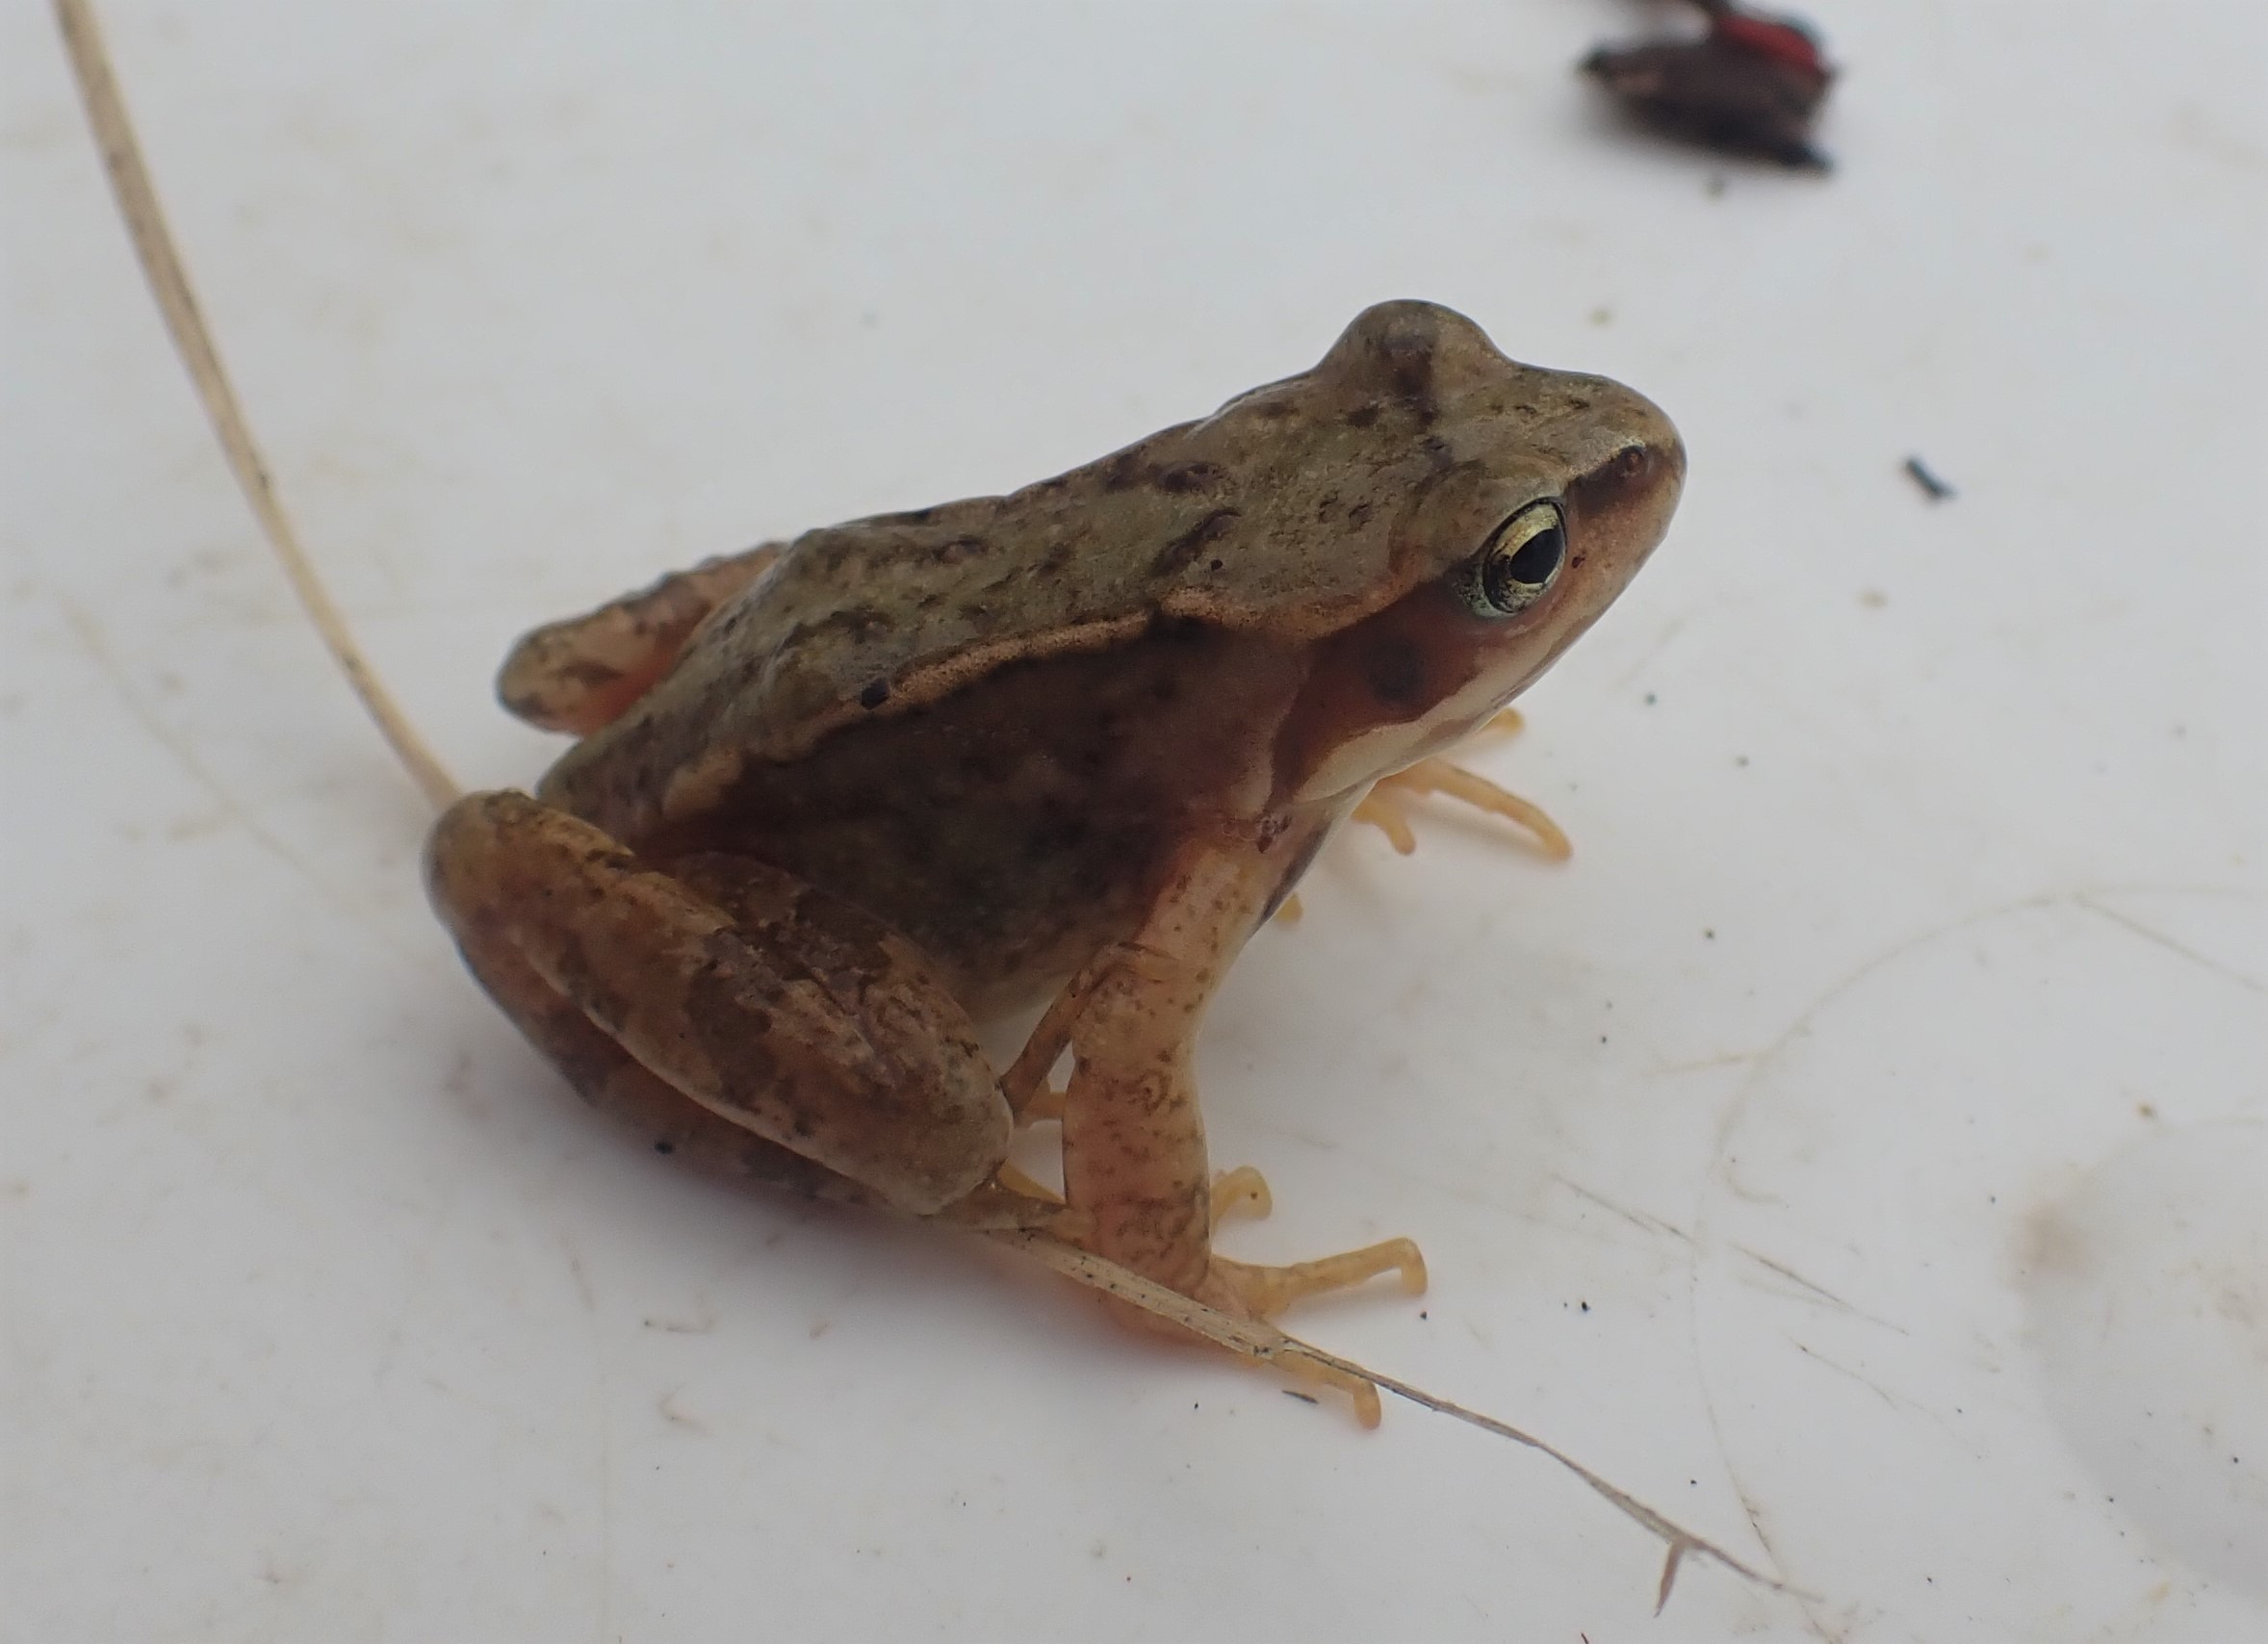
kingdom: Animalia
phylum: Chordata
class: Amphibia
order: Anura
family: Ranidae
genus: Rana
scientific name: Rana temporaria
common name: Butsnudet frø
